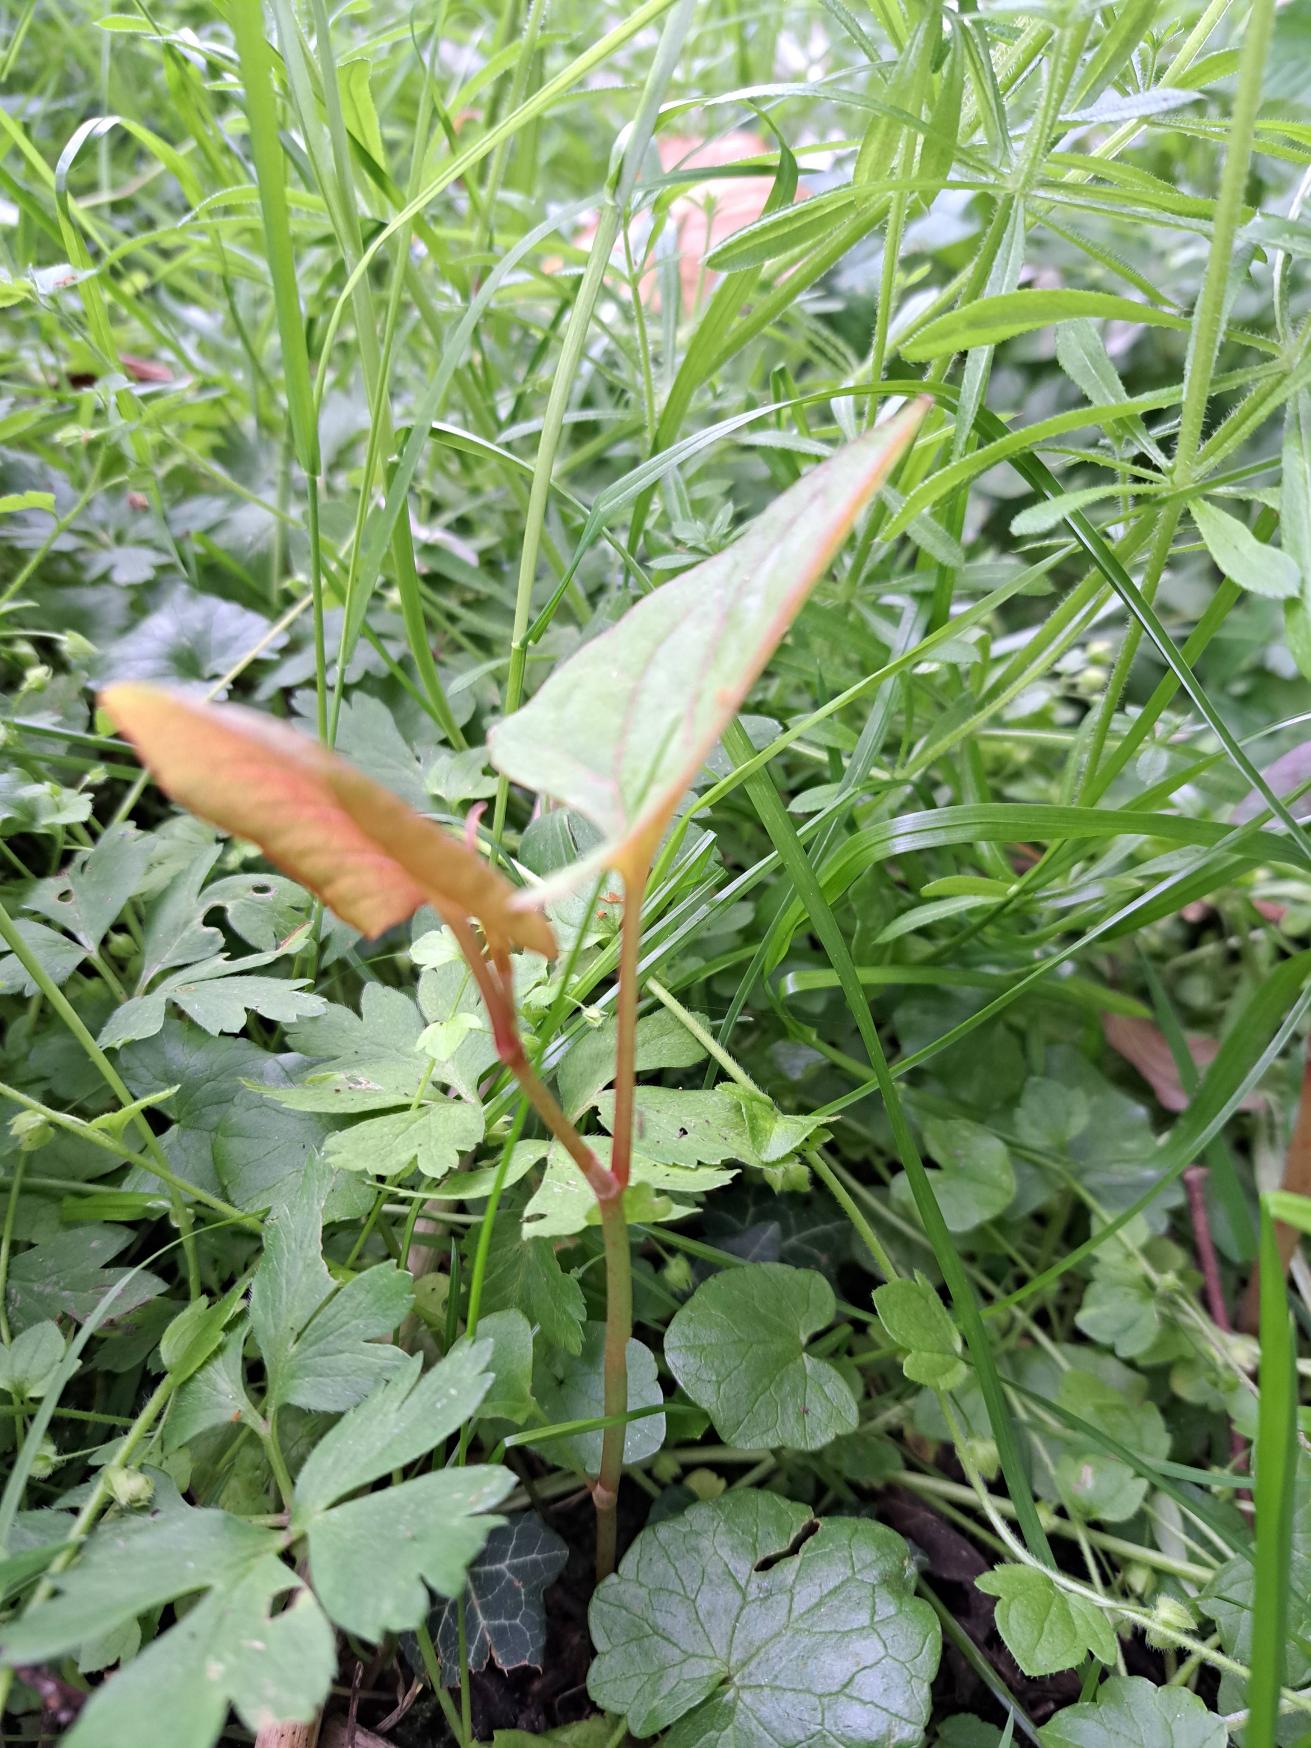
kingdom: Plantae
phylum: Tracheophyta
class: Magnoliopsida
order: Caryophyllales
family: Polygonaceae
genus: Reynoutria
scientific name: Reynoutria
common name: Pileurt (Reynoutria-slægten)
